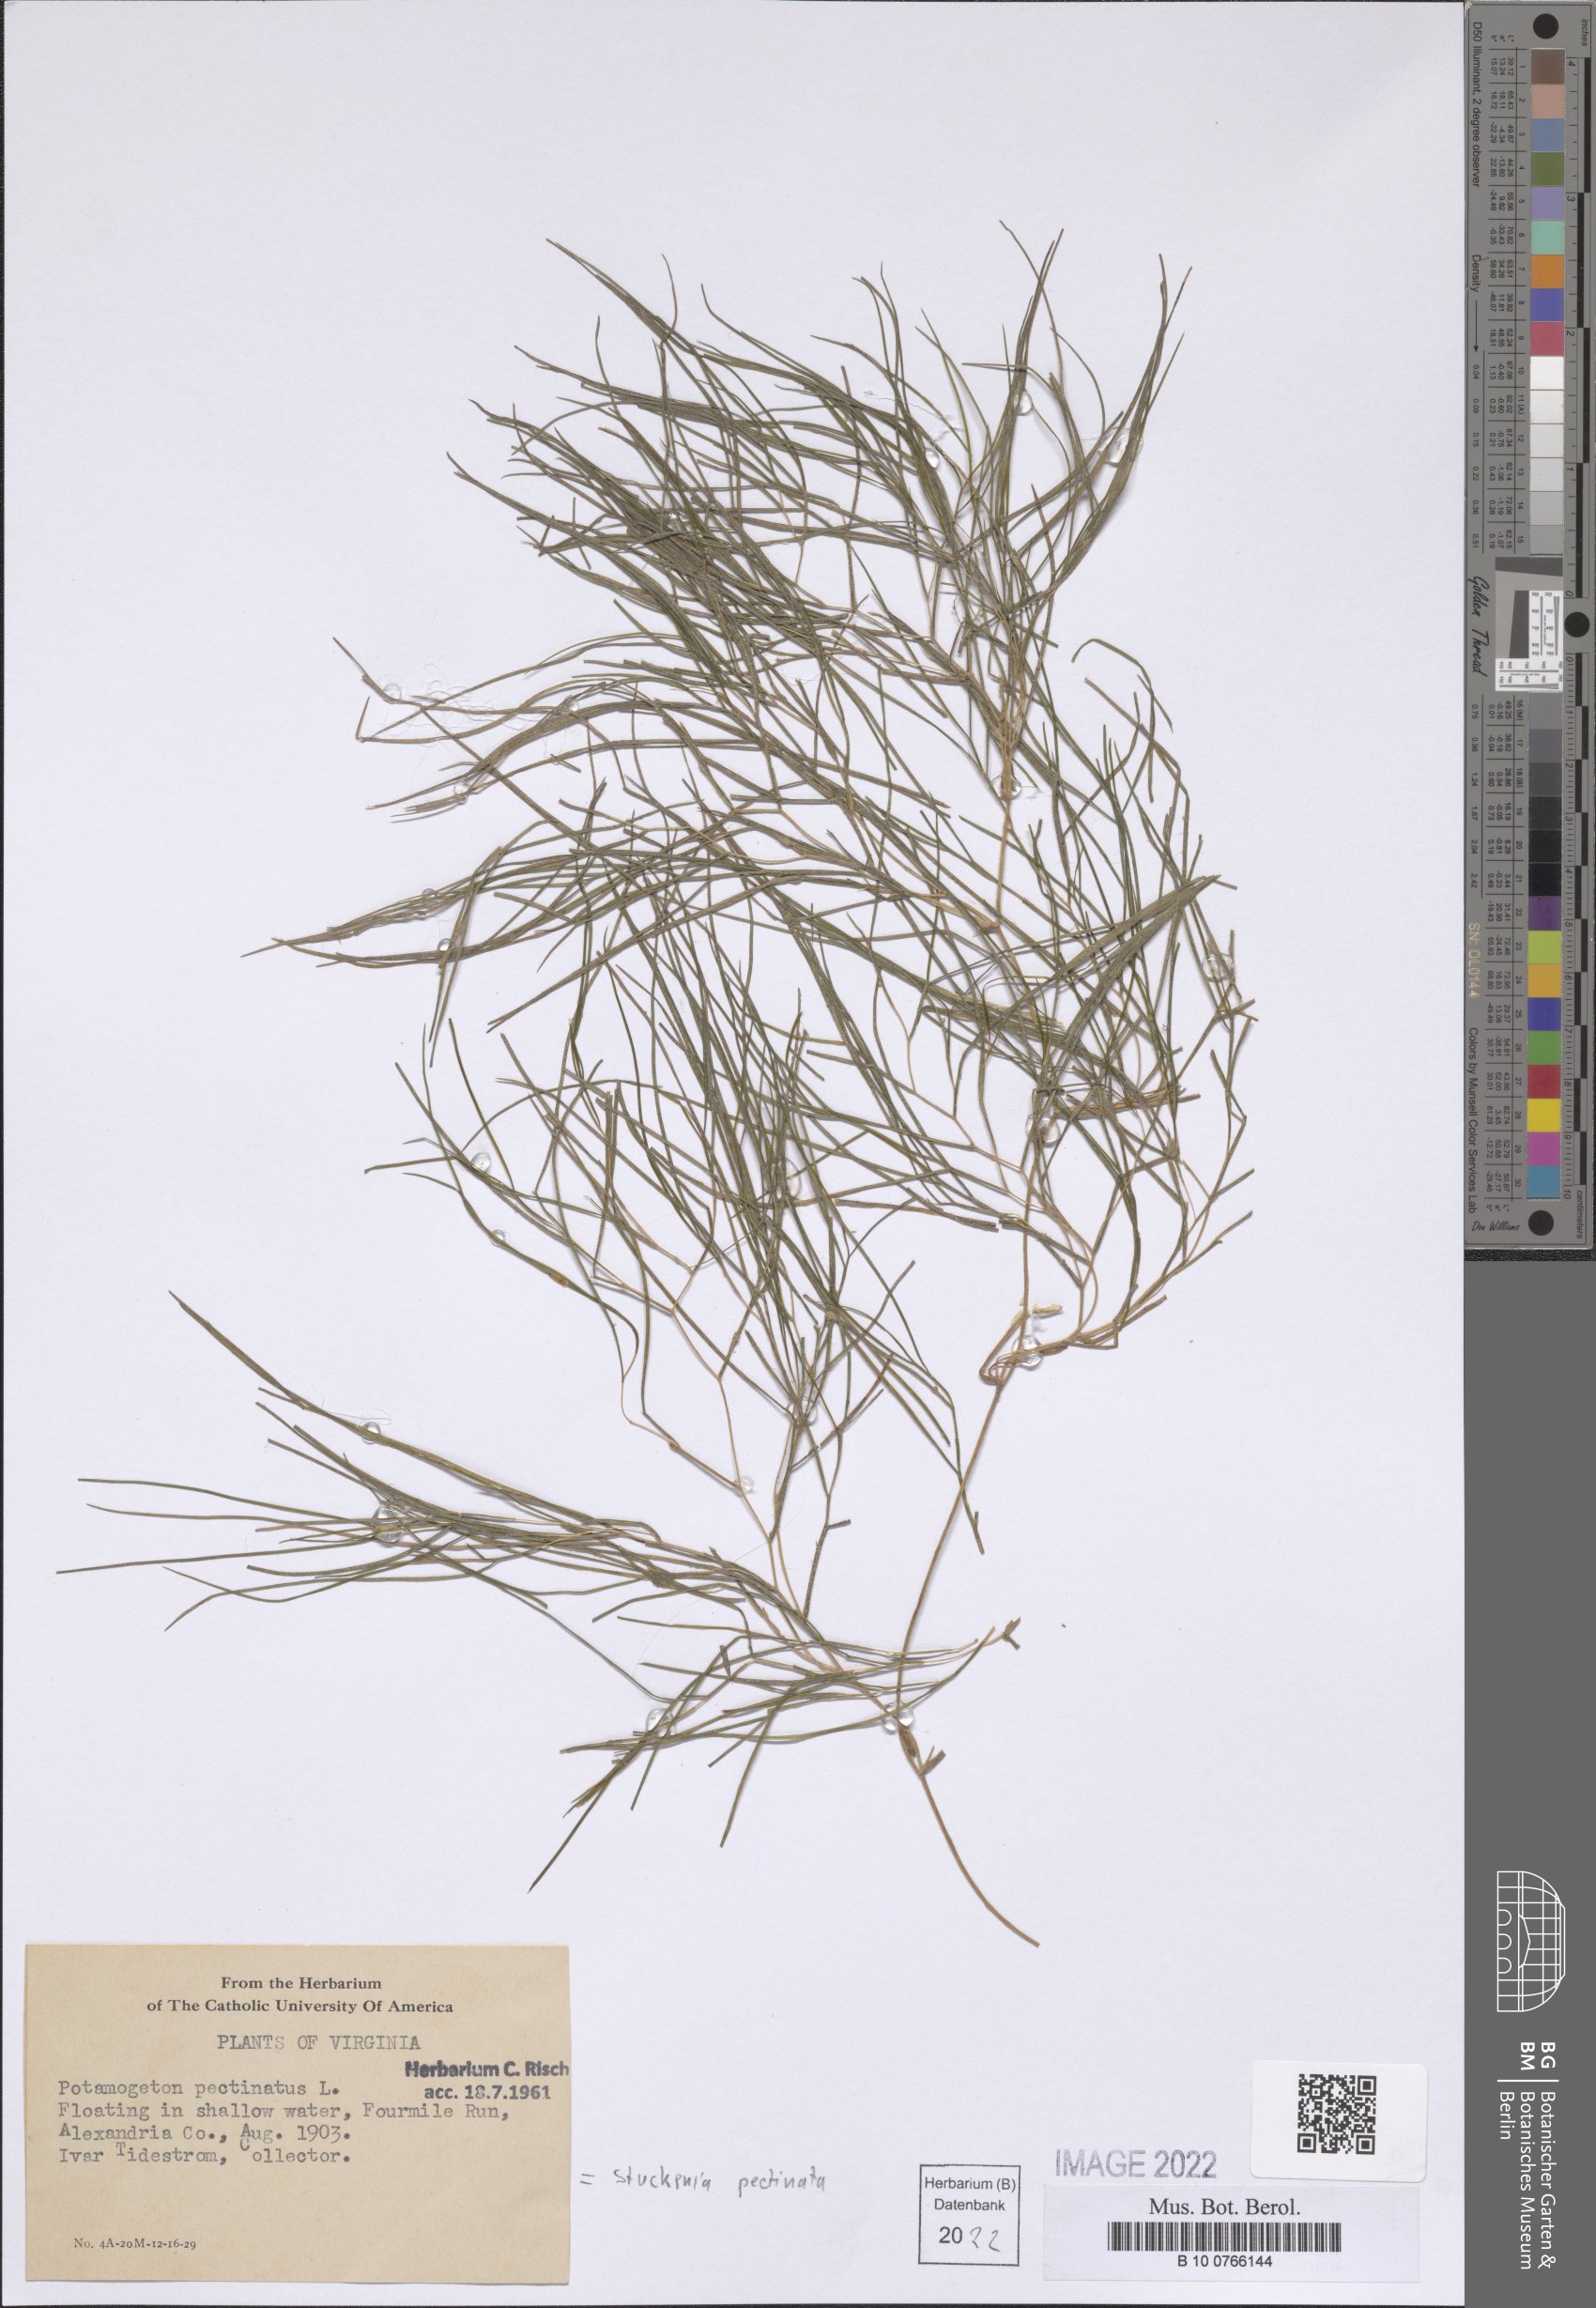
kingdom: Plantae
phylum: Tracheophyta
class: Liliopsida
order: Alismatales
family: Potamogetonaceae
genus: Stuckenia
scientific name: Stuckenia pectinata
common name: Sago pondweed
